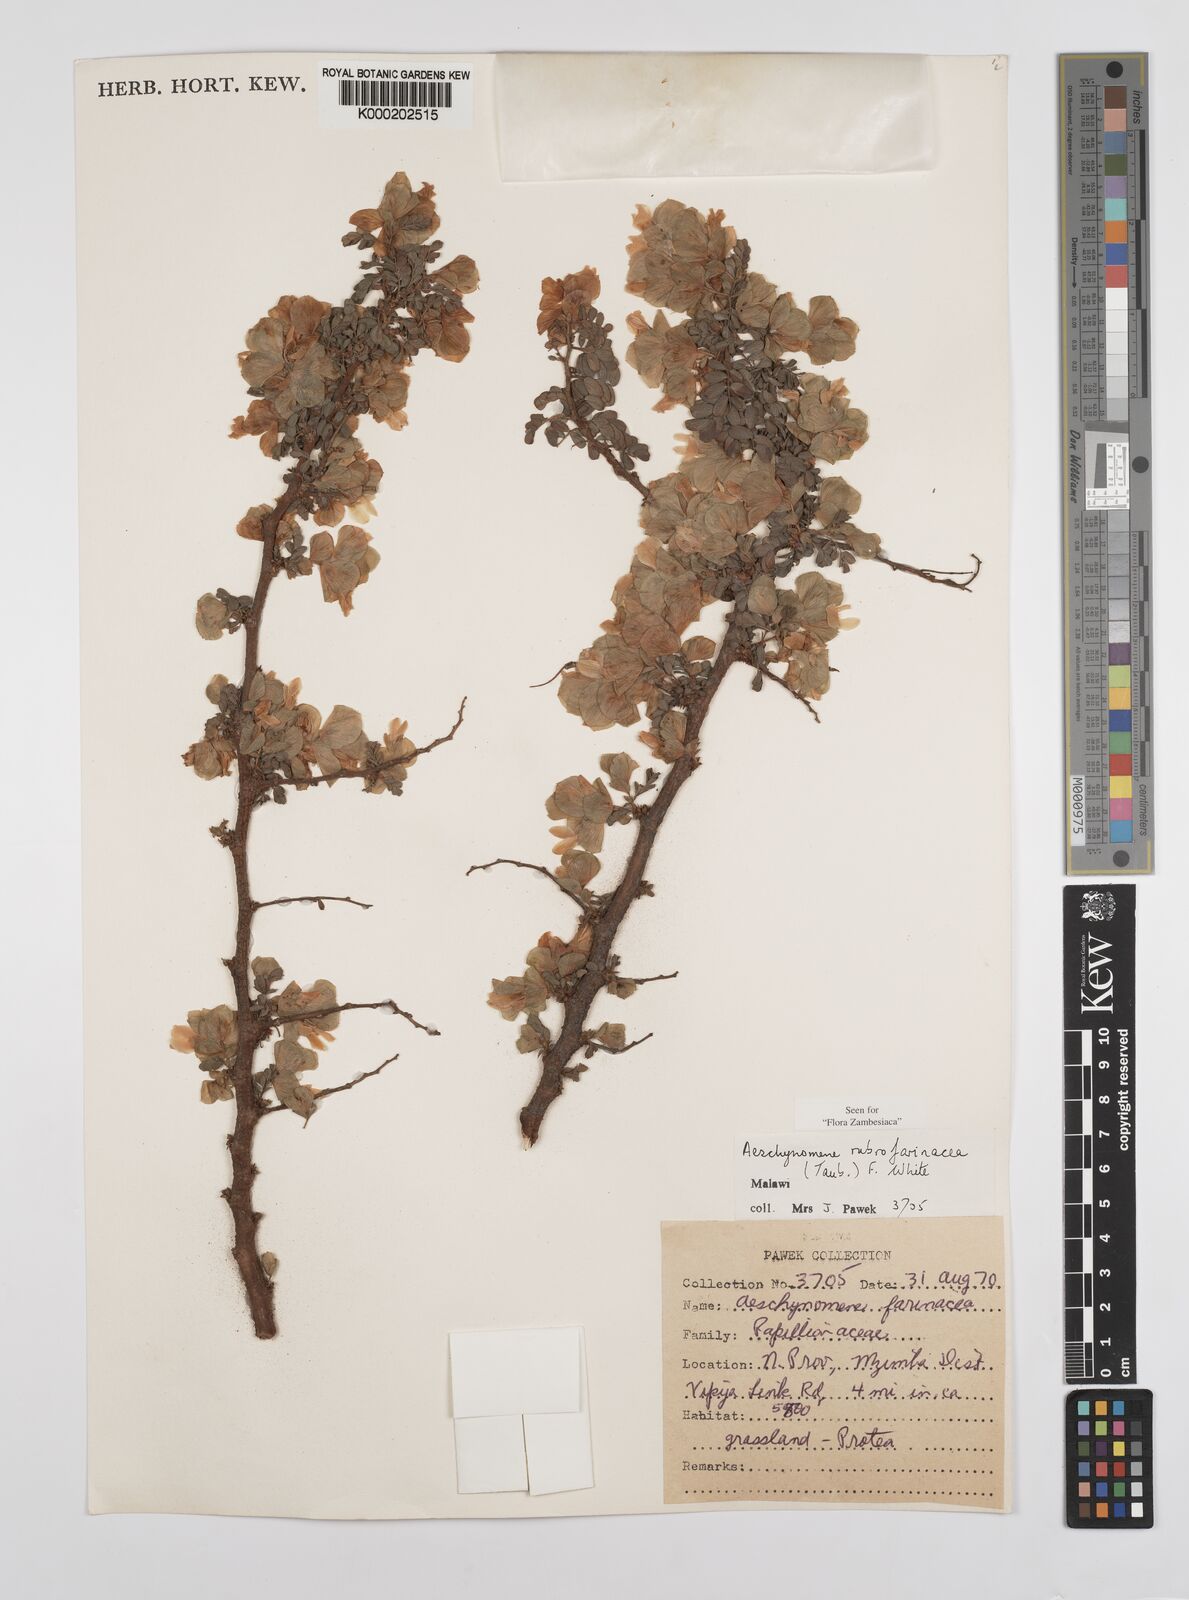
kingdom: Plantae
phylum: Tracheophyta
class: Magnoliopsida
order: Fabales
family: Fabaceae
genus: Aeschynomene
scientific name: Aeschynomene rubrofarinacea
